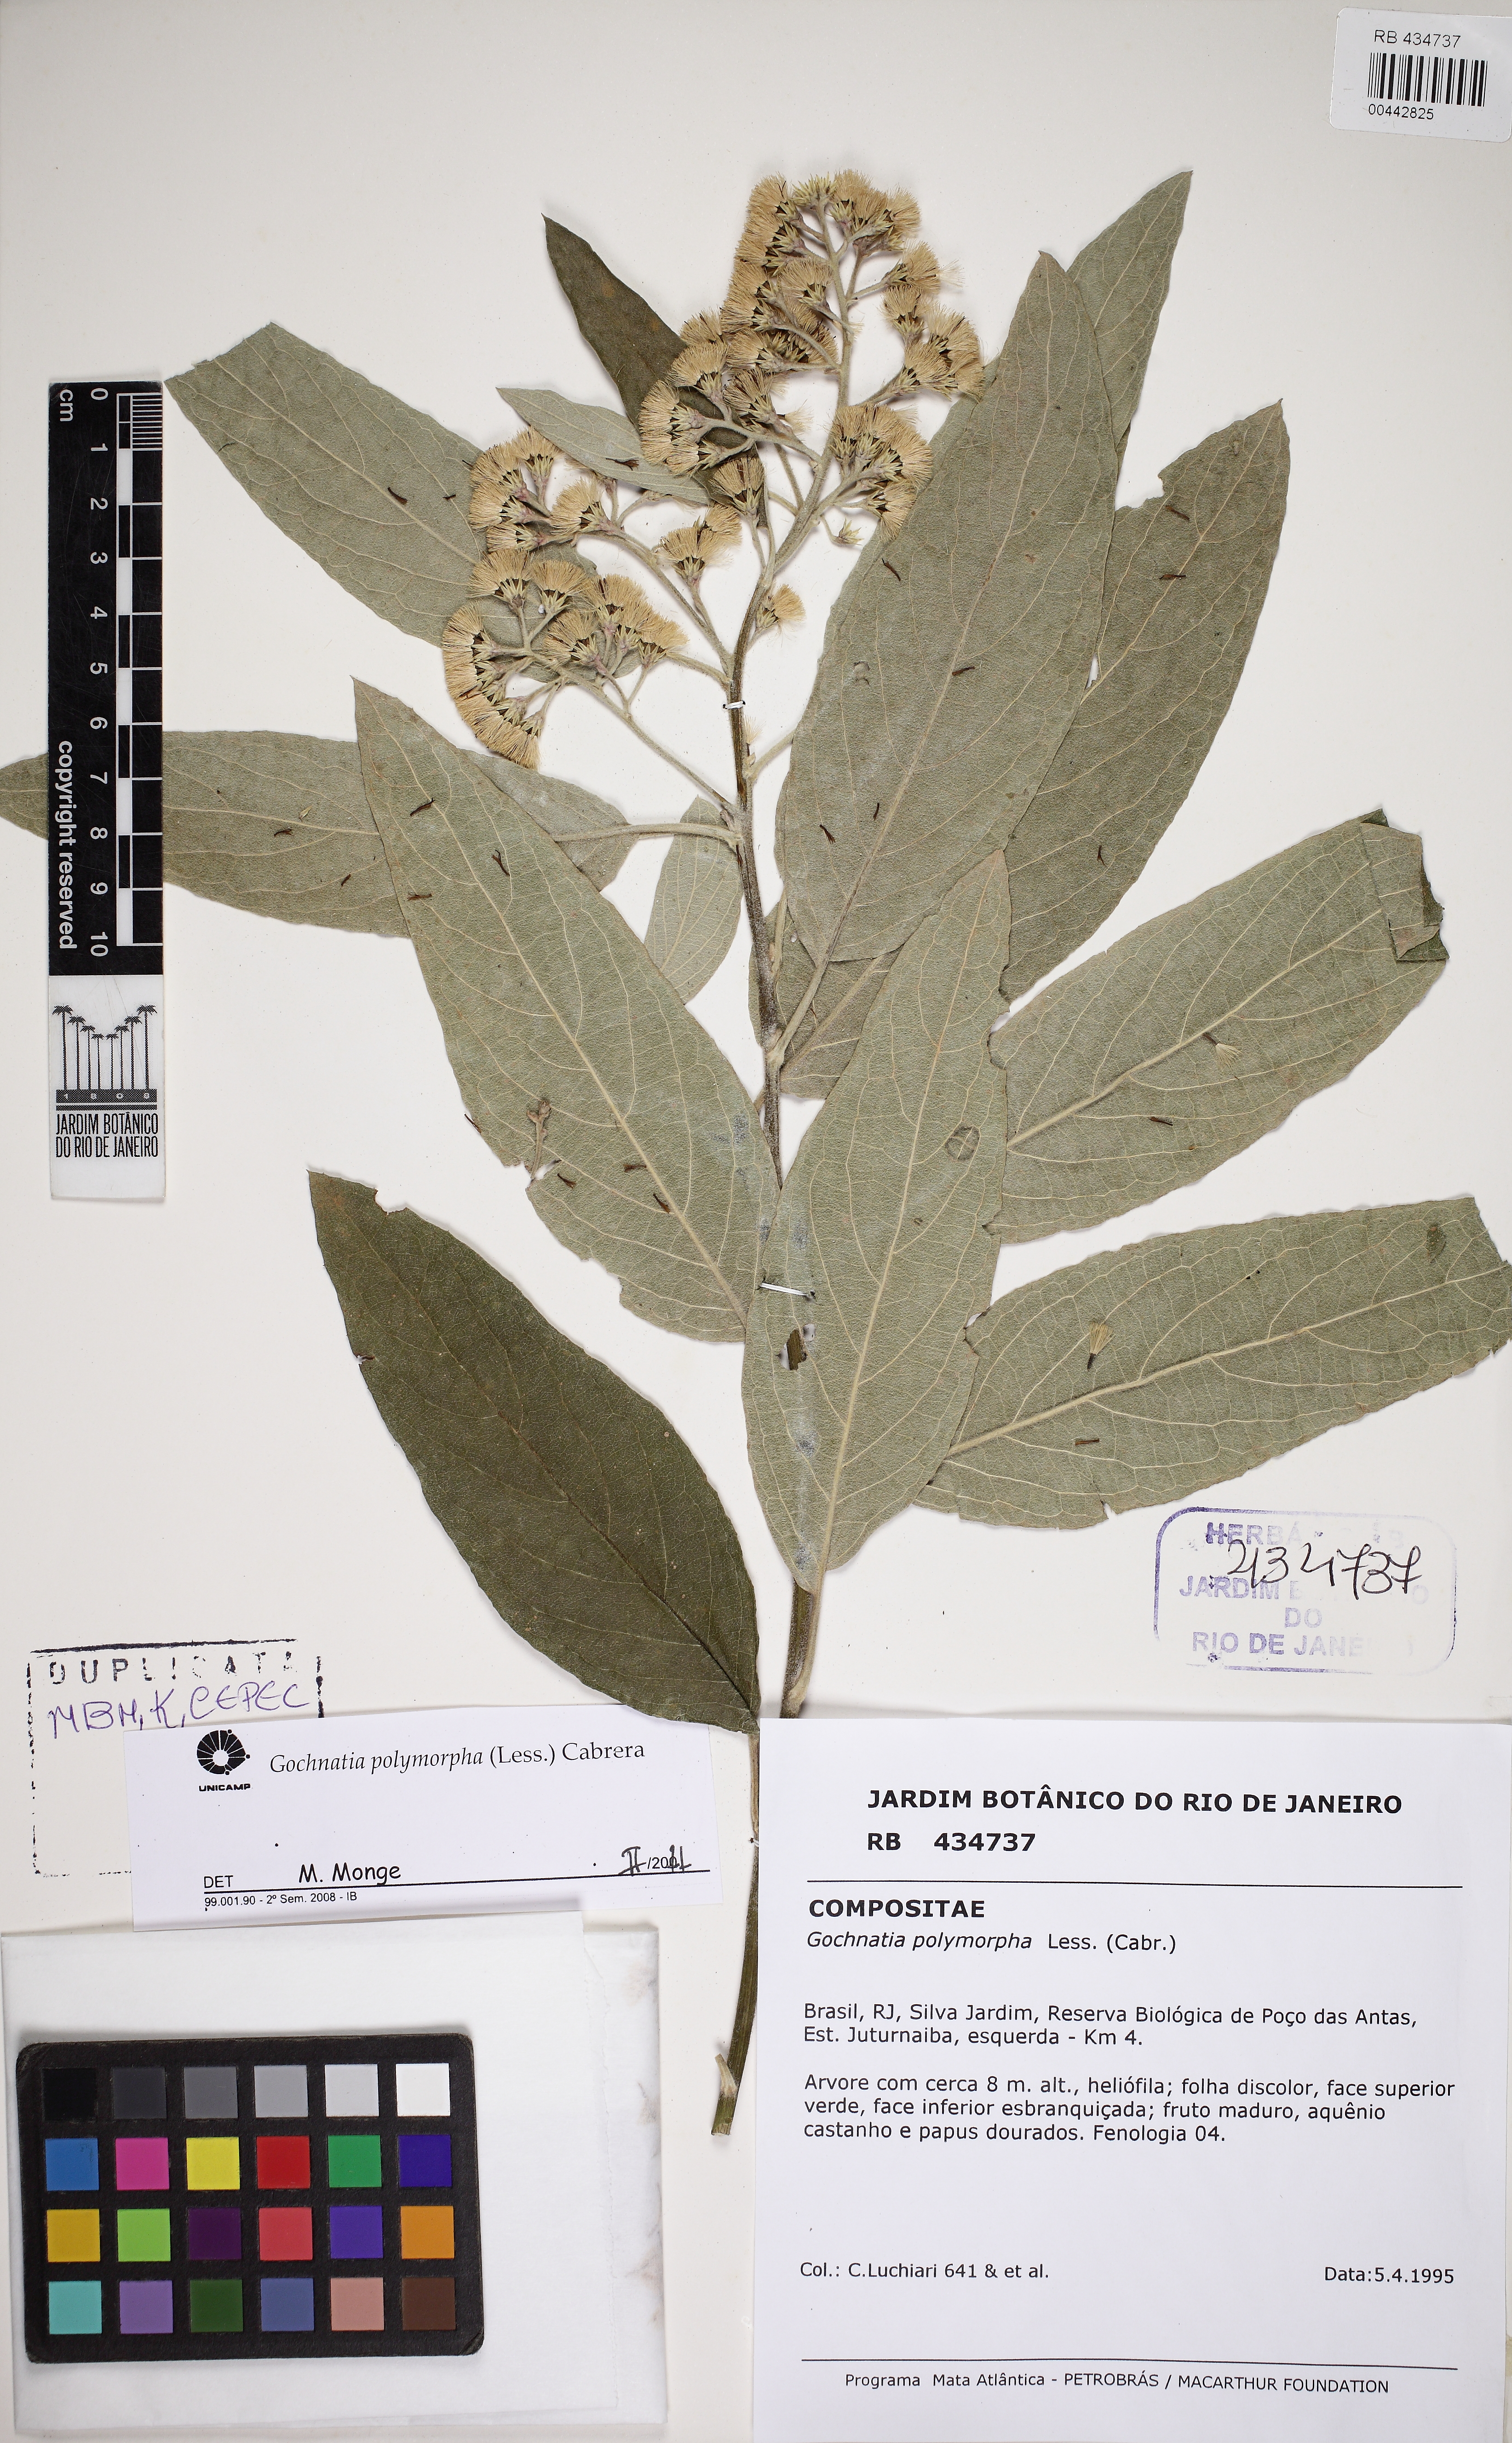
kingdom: Plantae
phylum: Tracheophyta
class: Magnoliopsida
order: Asterales
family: Asteraceae
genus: Moquiniastrum
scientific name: Moquiniastrum polymorphum
